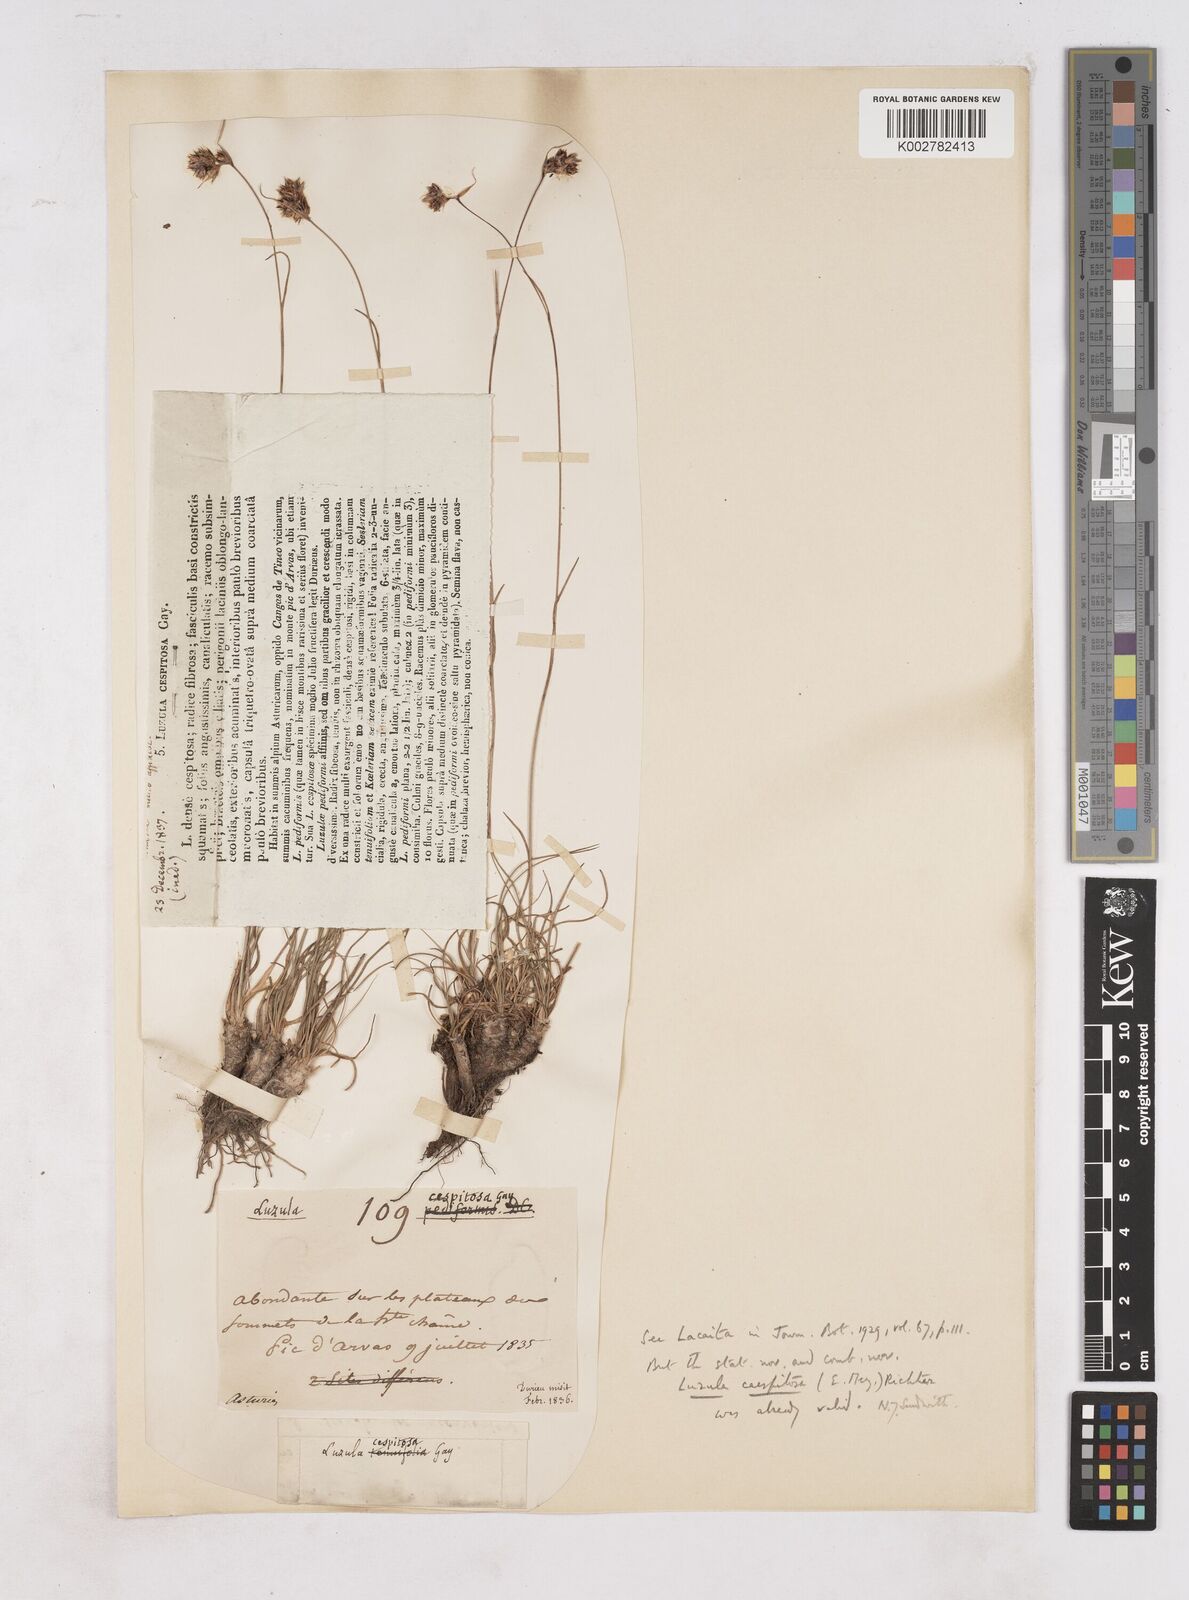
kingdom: Plantae
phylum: Tracheophyta
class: Liliopsida
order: Poales
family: Juncaceae
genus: Luzula
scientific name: Luzula caespitosa
